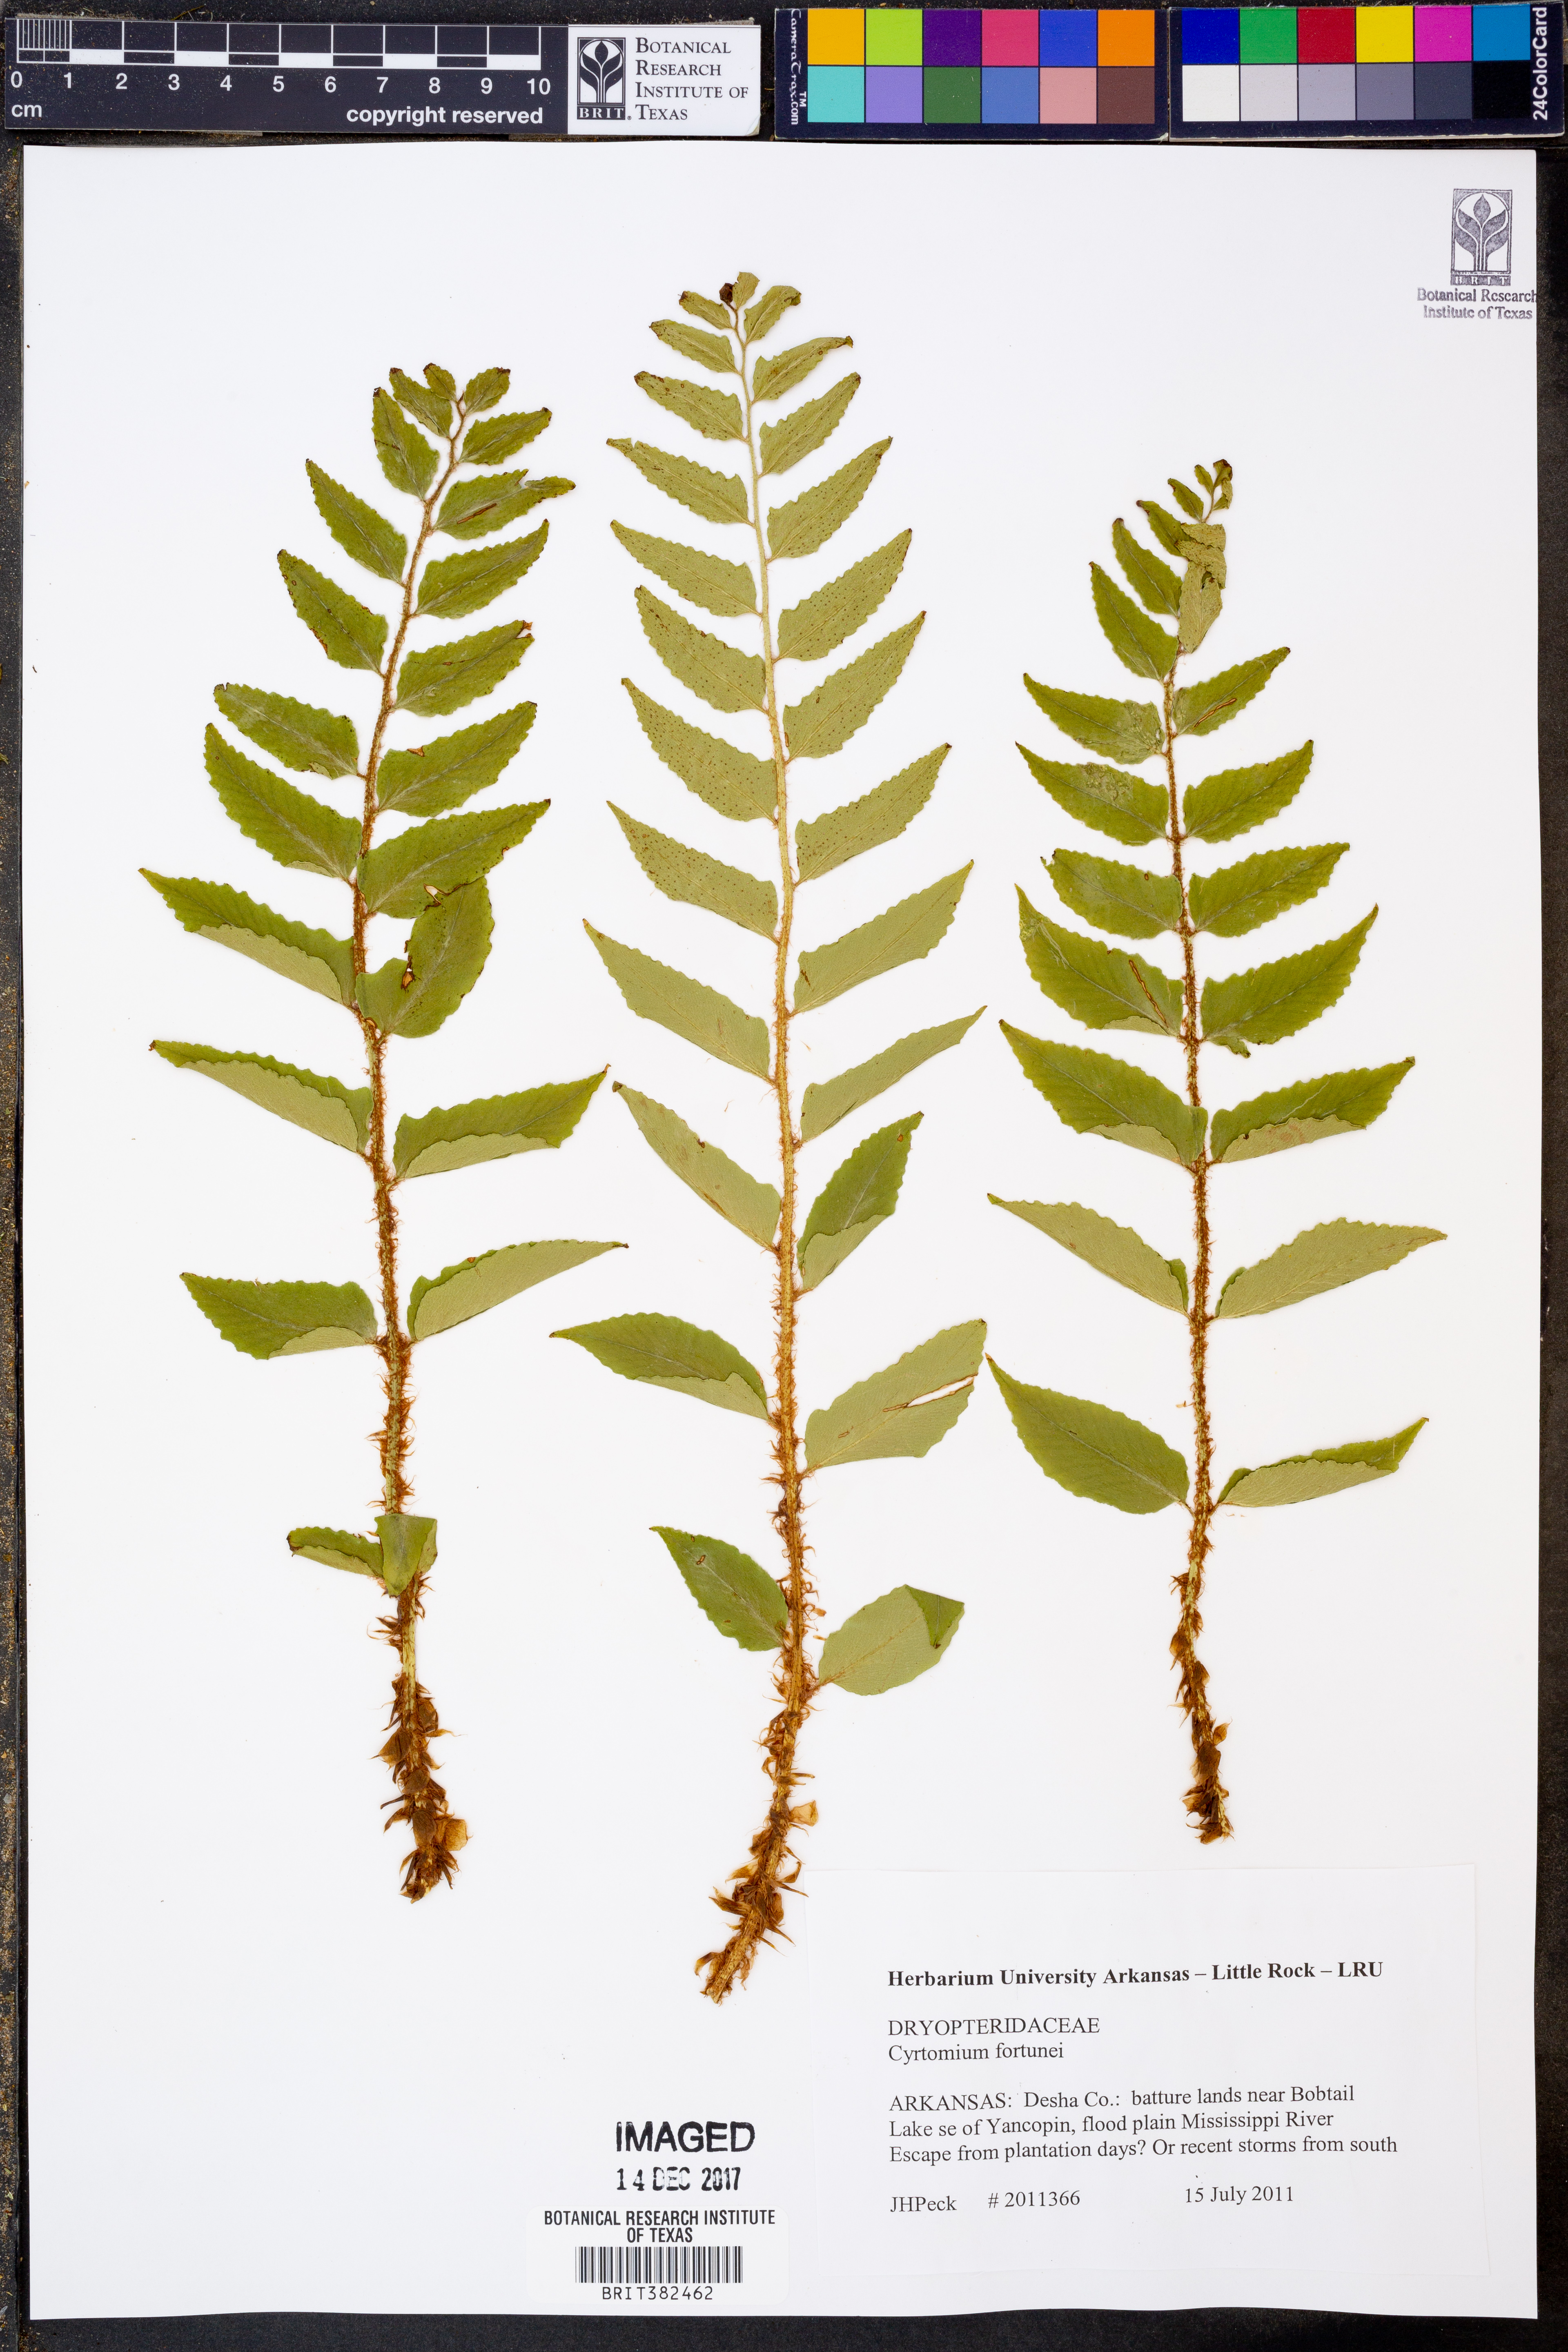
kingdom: Plantae
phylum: Tracheophyta
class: Polypodiopsida
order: Polypodiales
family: Dryopteridaceae
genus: Cyrtomium
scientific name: Cyrtomium fortunei
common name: Asian netvein hollyfern
